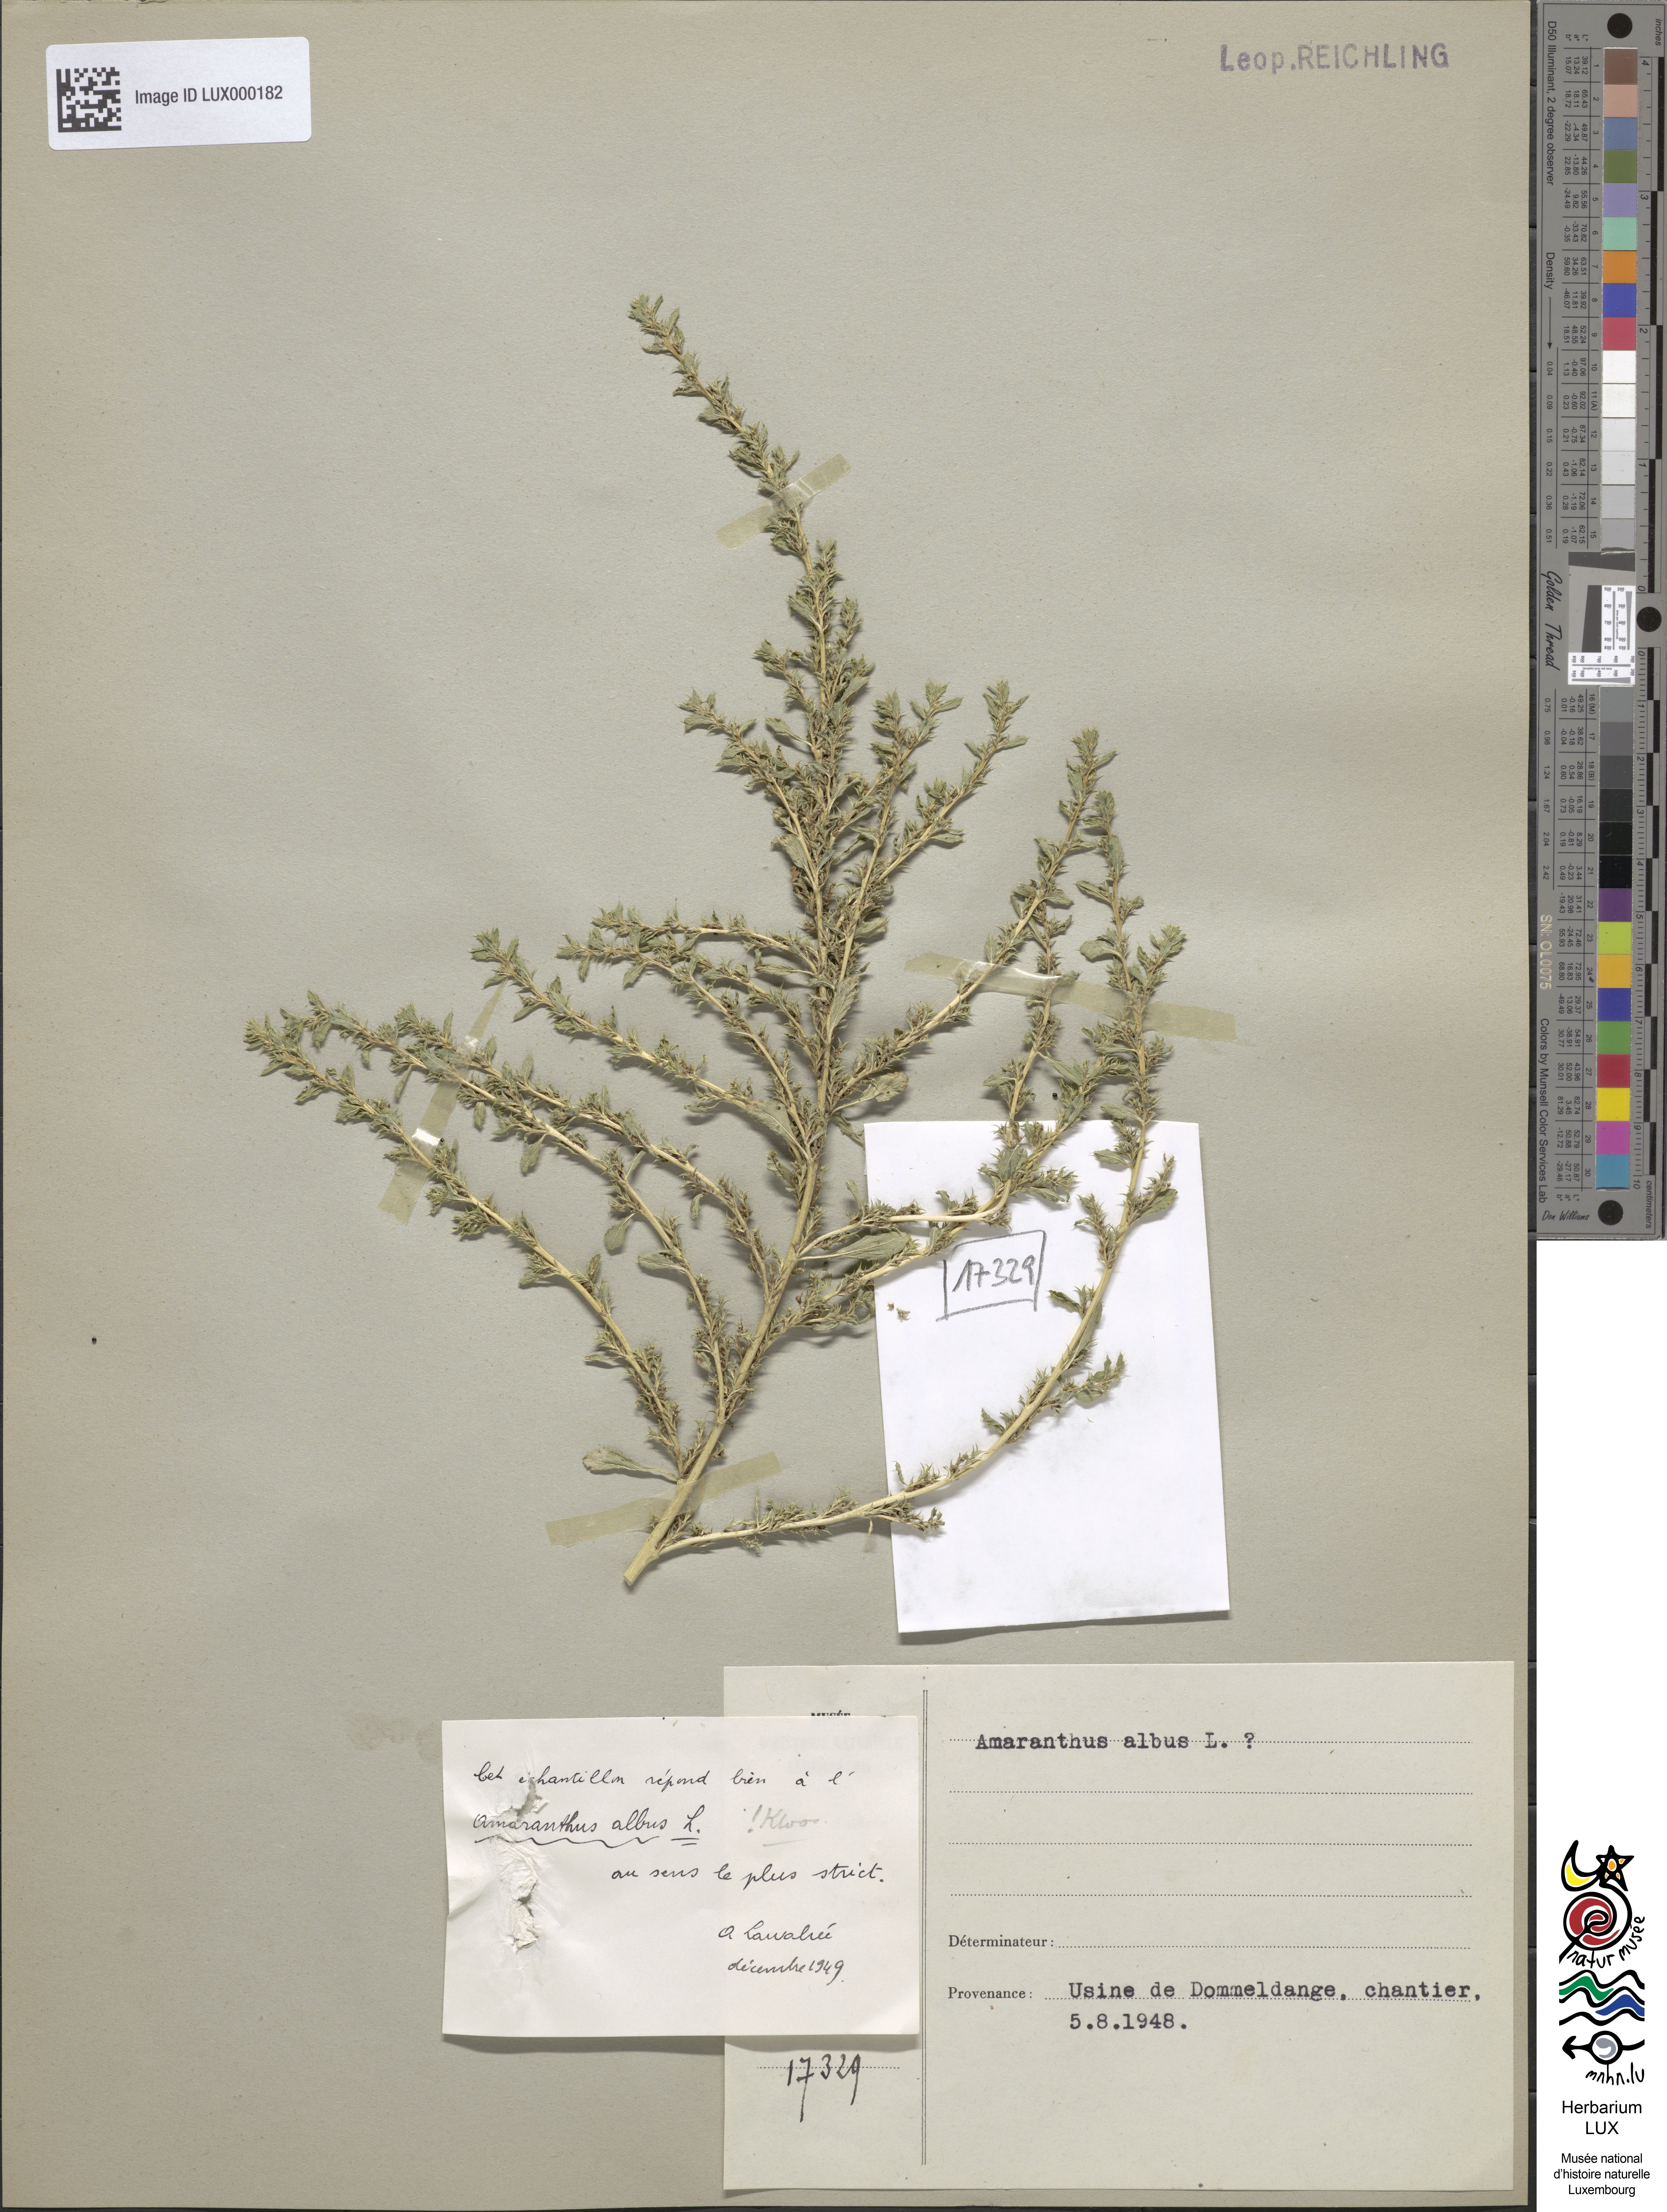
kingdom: Plantae
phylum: Tracheophyta
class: Magnoliopsida
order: Caryophyllales
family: Amaranthaceae
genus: Amaranthus
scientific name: Amaranthus albus
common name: White pigweed
